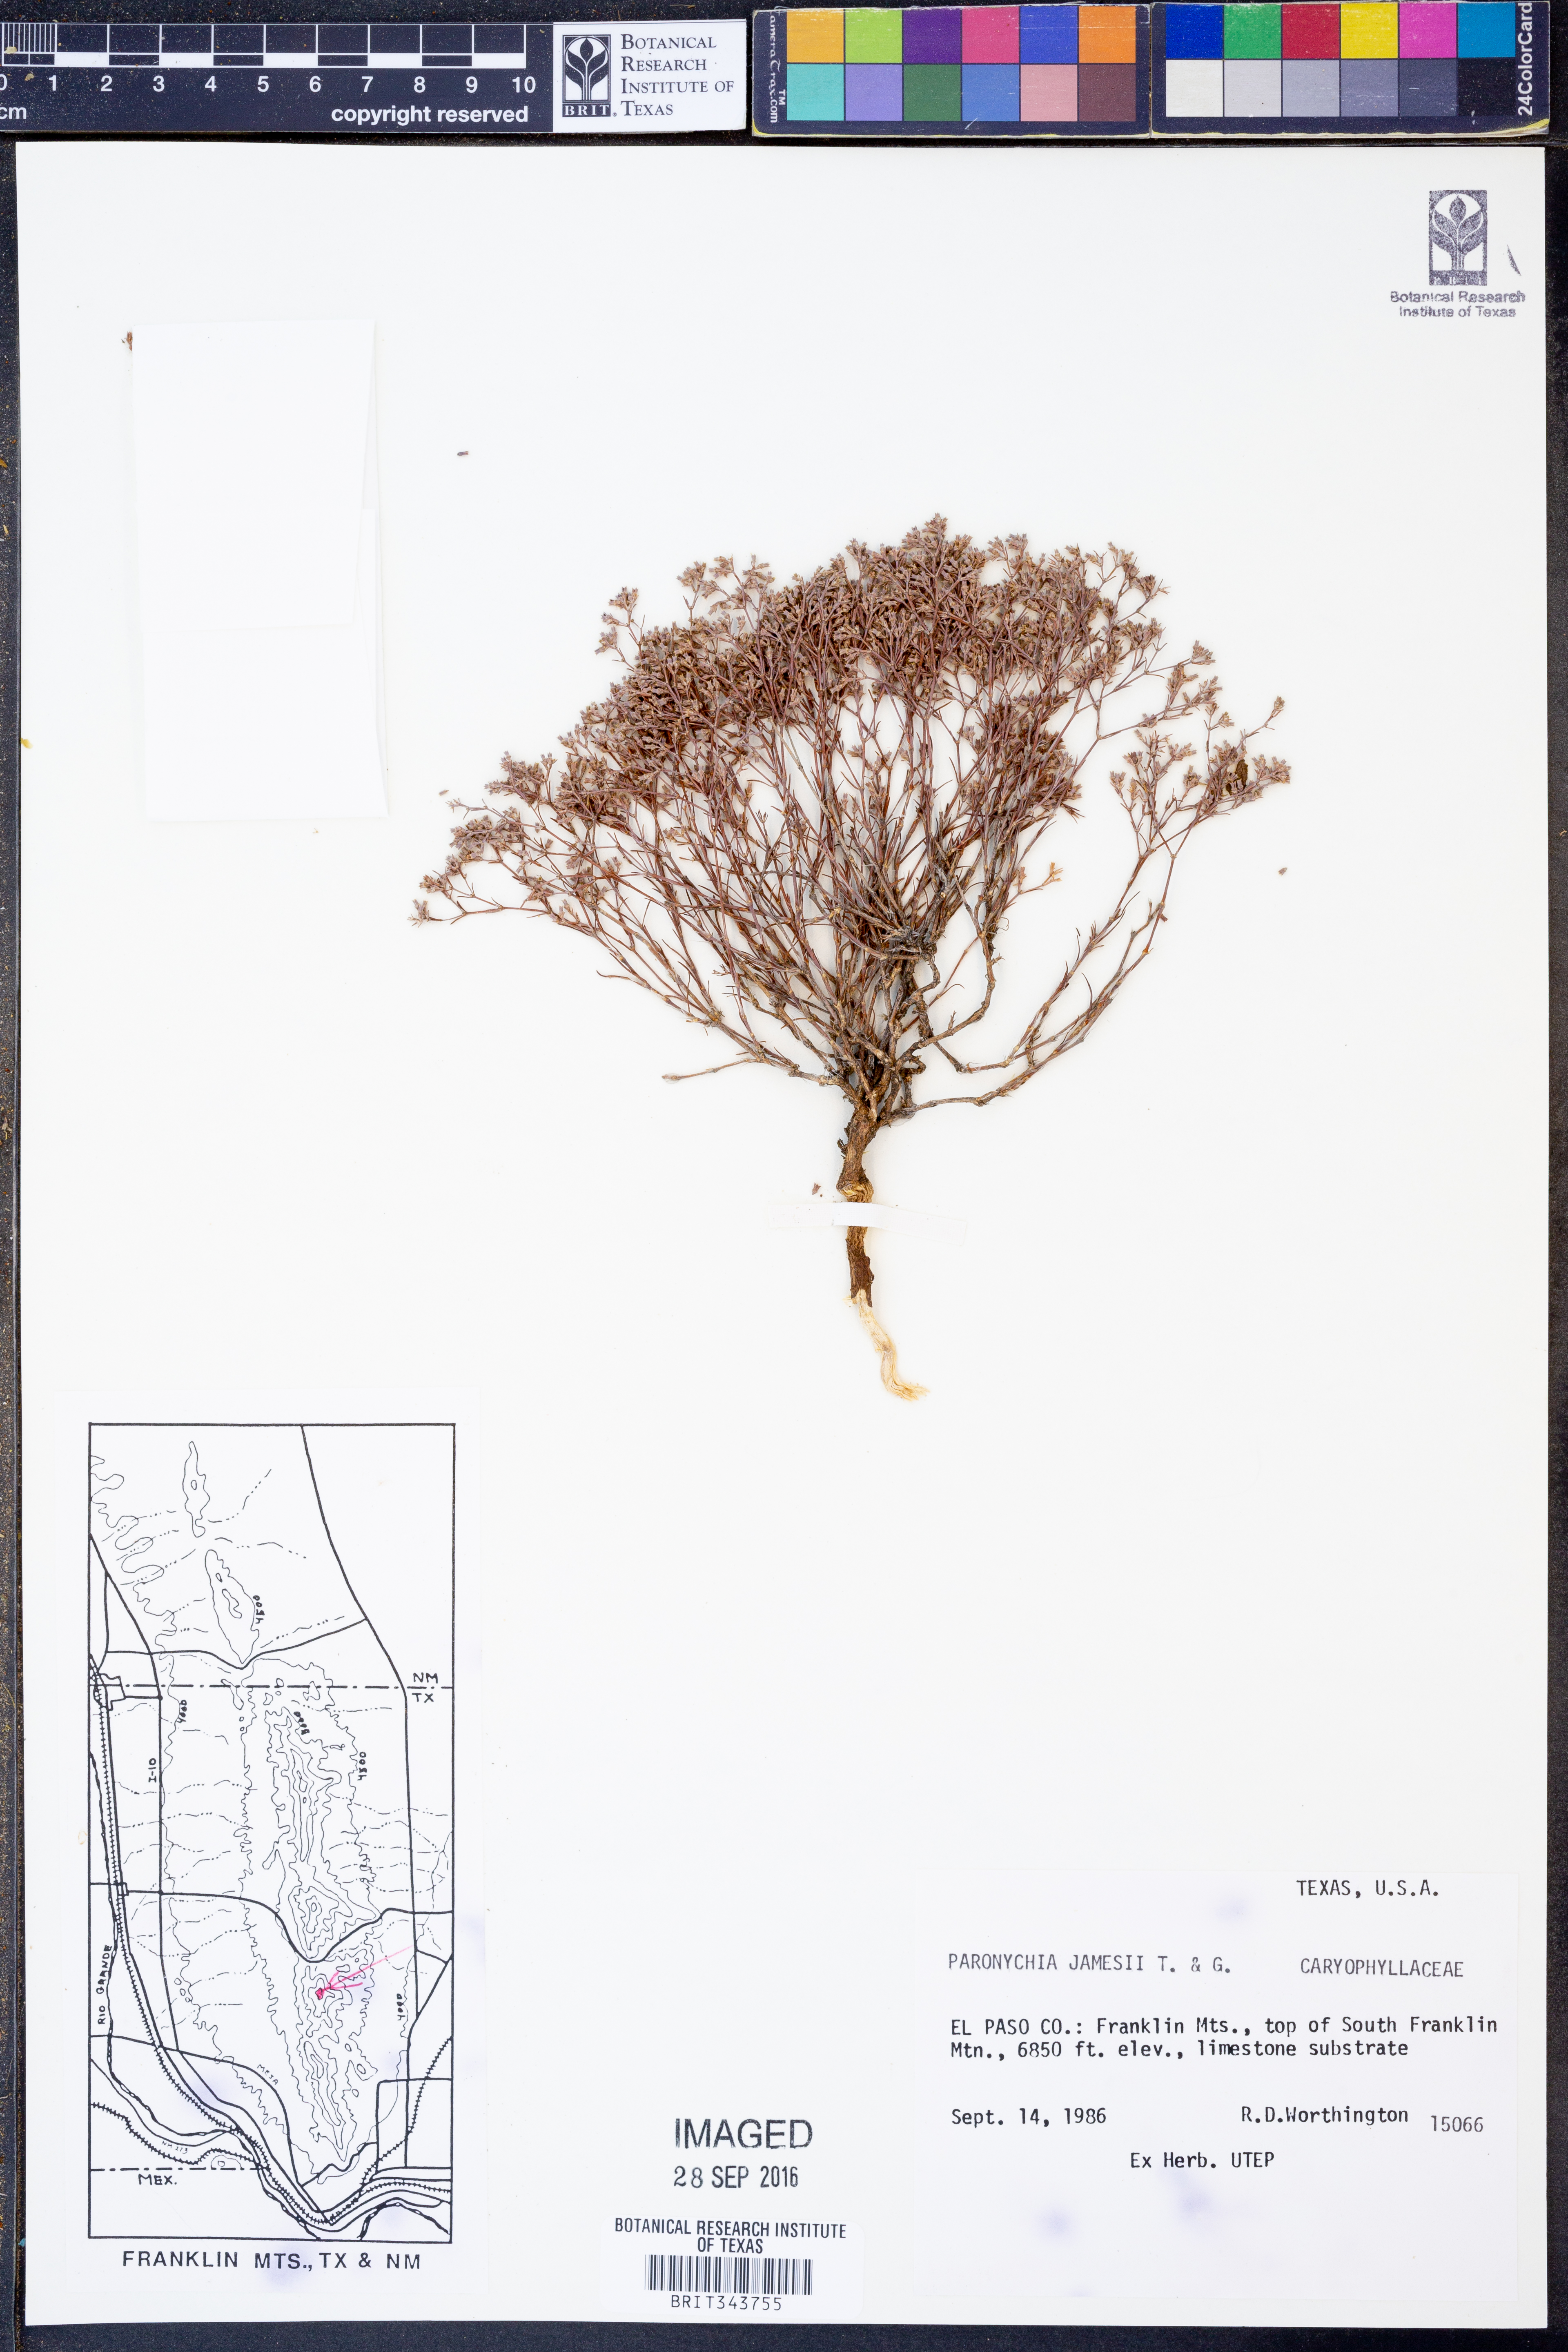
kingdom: Plantae
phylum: Tracheophyta
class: Magnoliopsida
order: Caryophyllales
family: Caryophyllaceae
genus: Paronychia
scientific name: Paronychia jamesii
